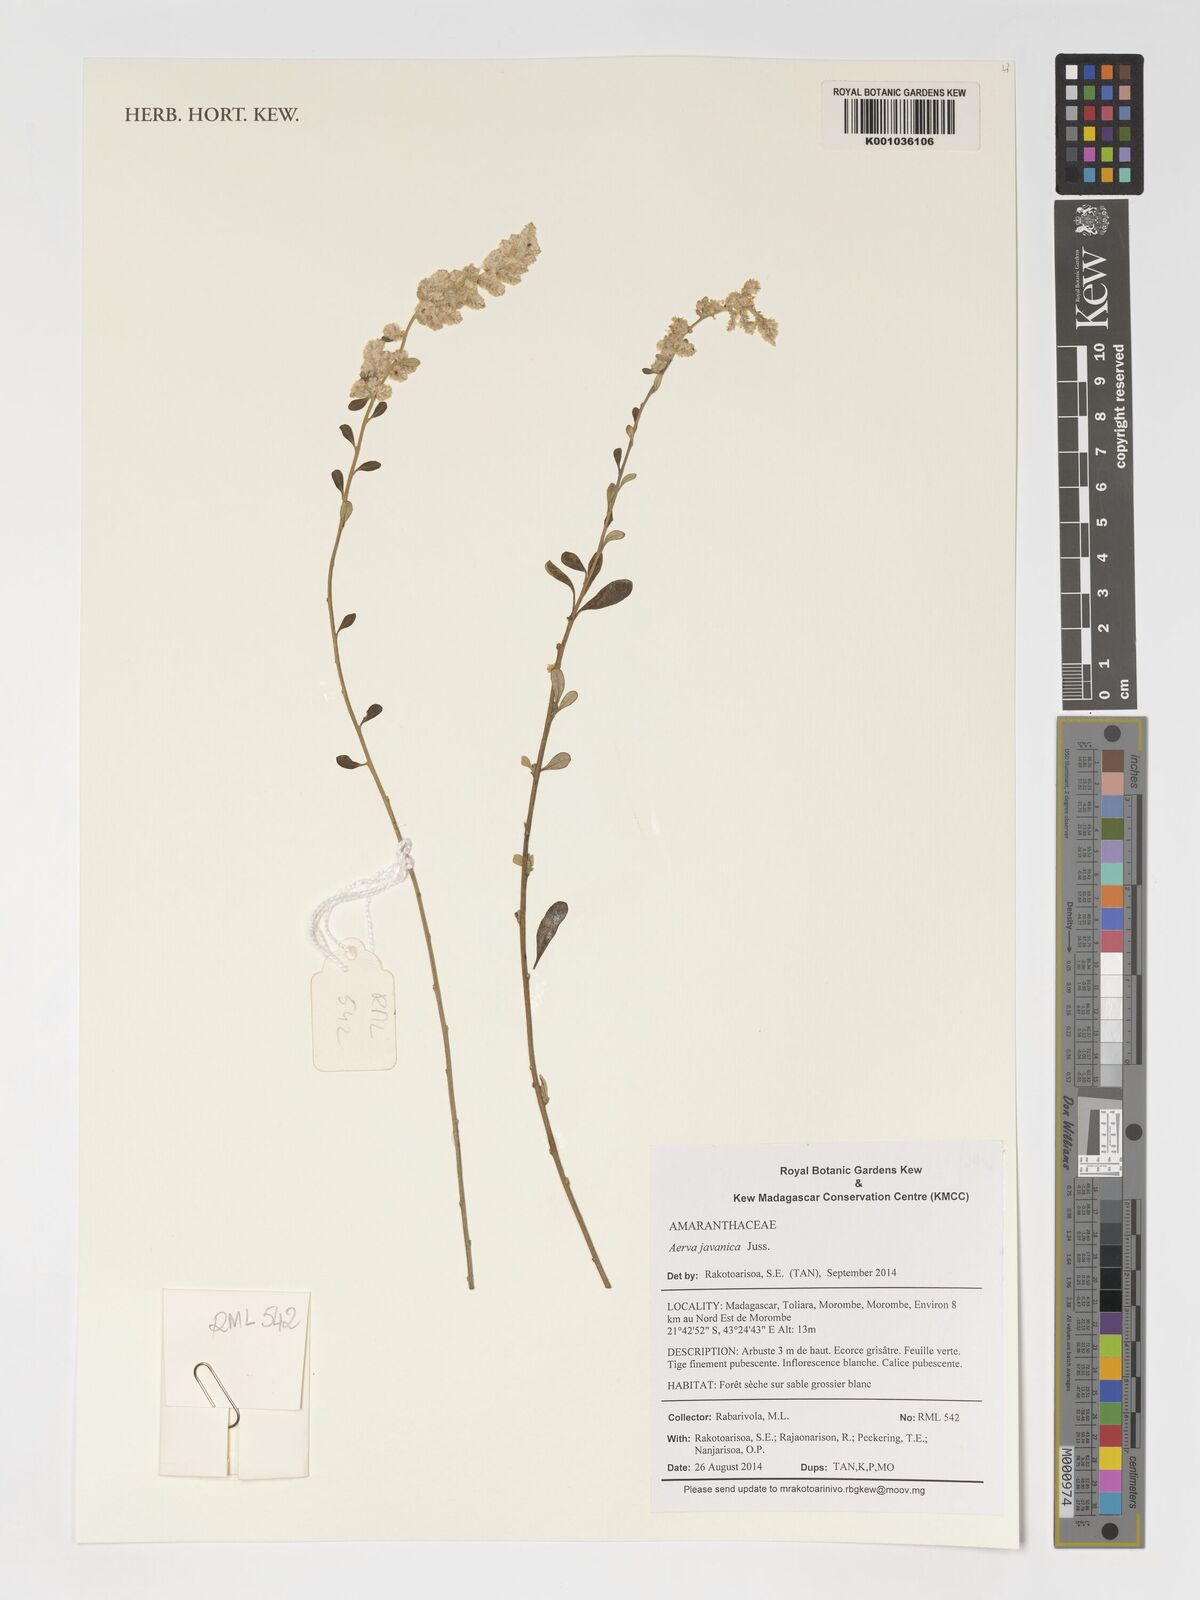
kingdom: Plantae
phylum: Tracheophyta
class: Magnoliopsida
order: Caryophyllales
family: Amaranthaceae
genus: Aerva
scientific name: Aerva javanica
